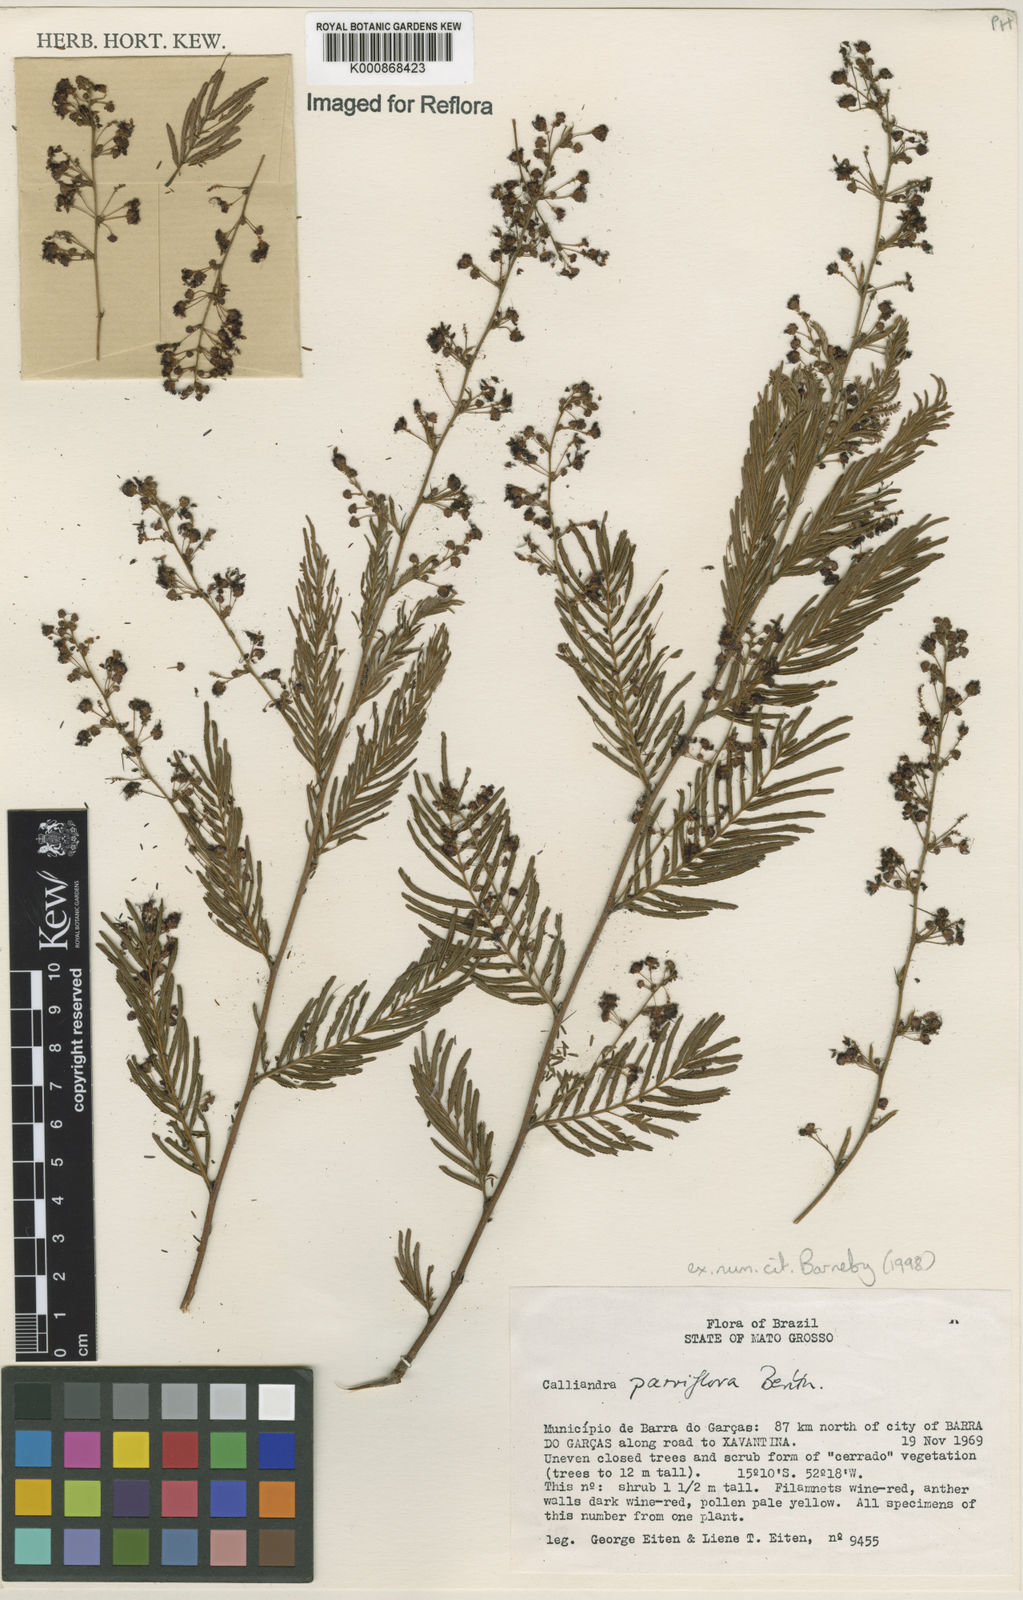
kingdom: Plantae
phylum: Tracheophyta
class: Magnoliopsida
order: Fabales
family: Fabaceae
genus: Calliandra
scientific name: Calliandra parviflora
